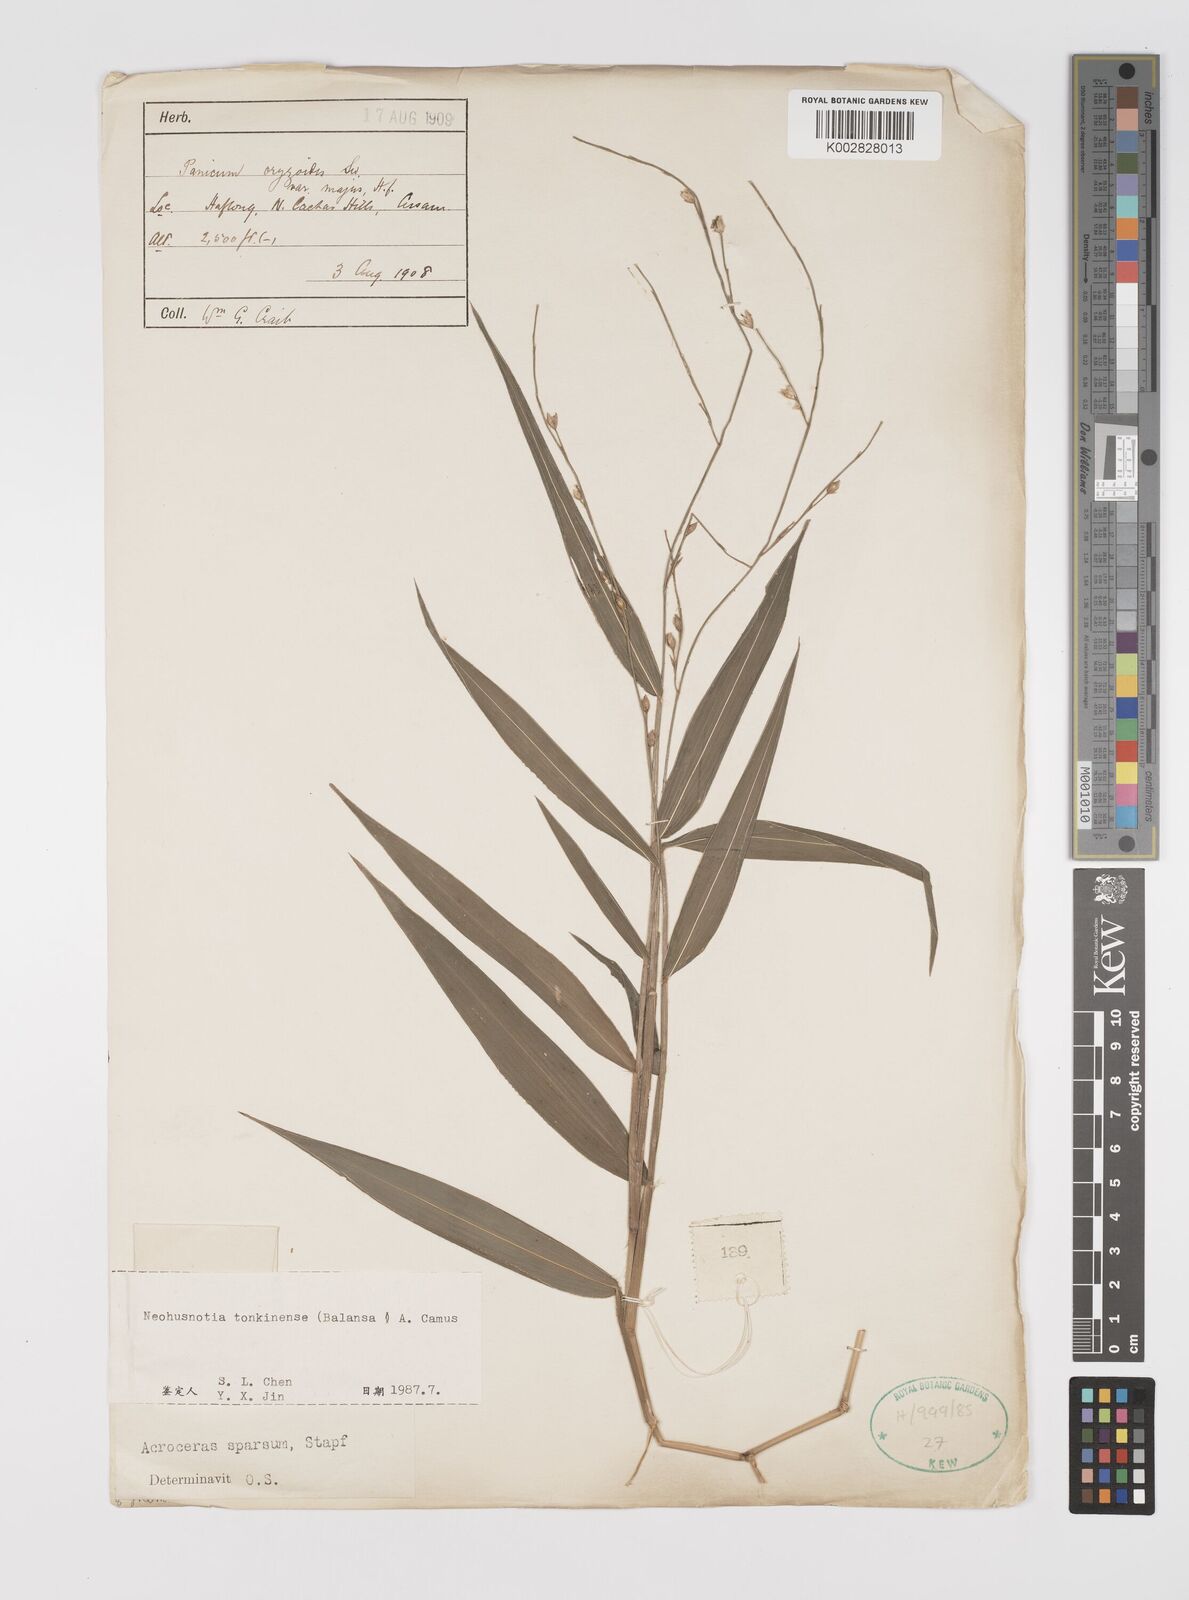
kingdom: Plantae
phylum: Tracheophyta
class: Liliopsida
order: Poales
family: Poaceae
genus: Acroceras
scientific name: Acroceras
